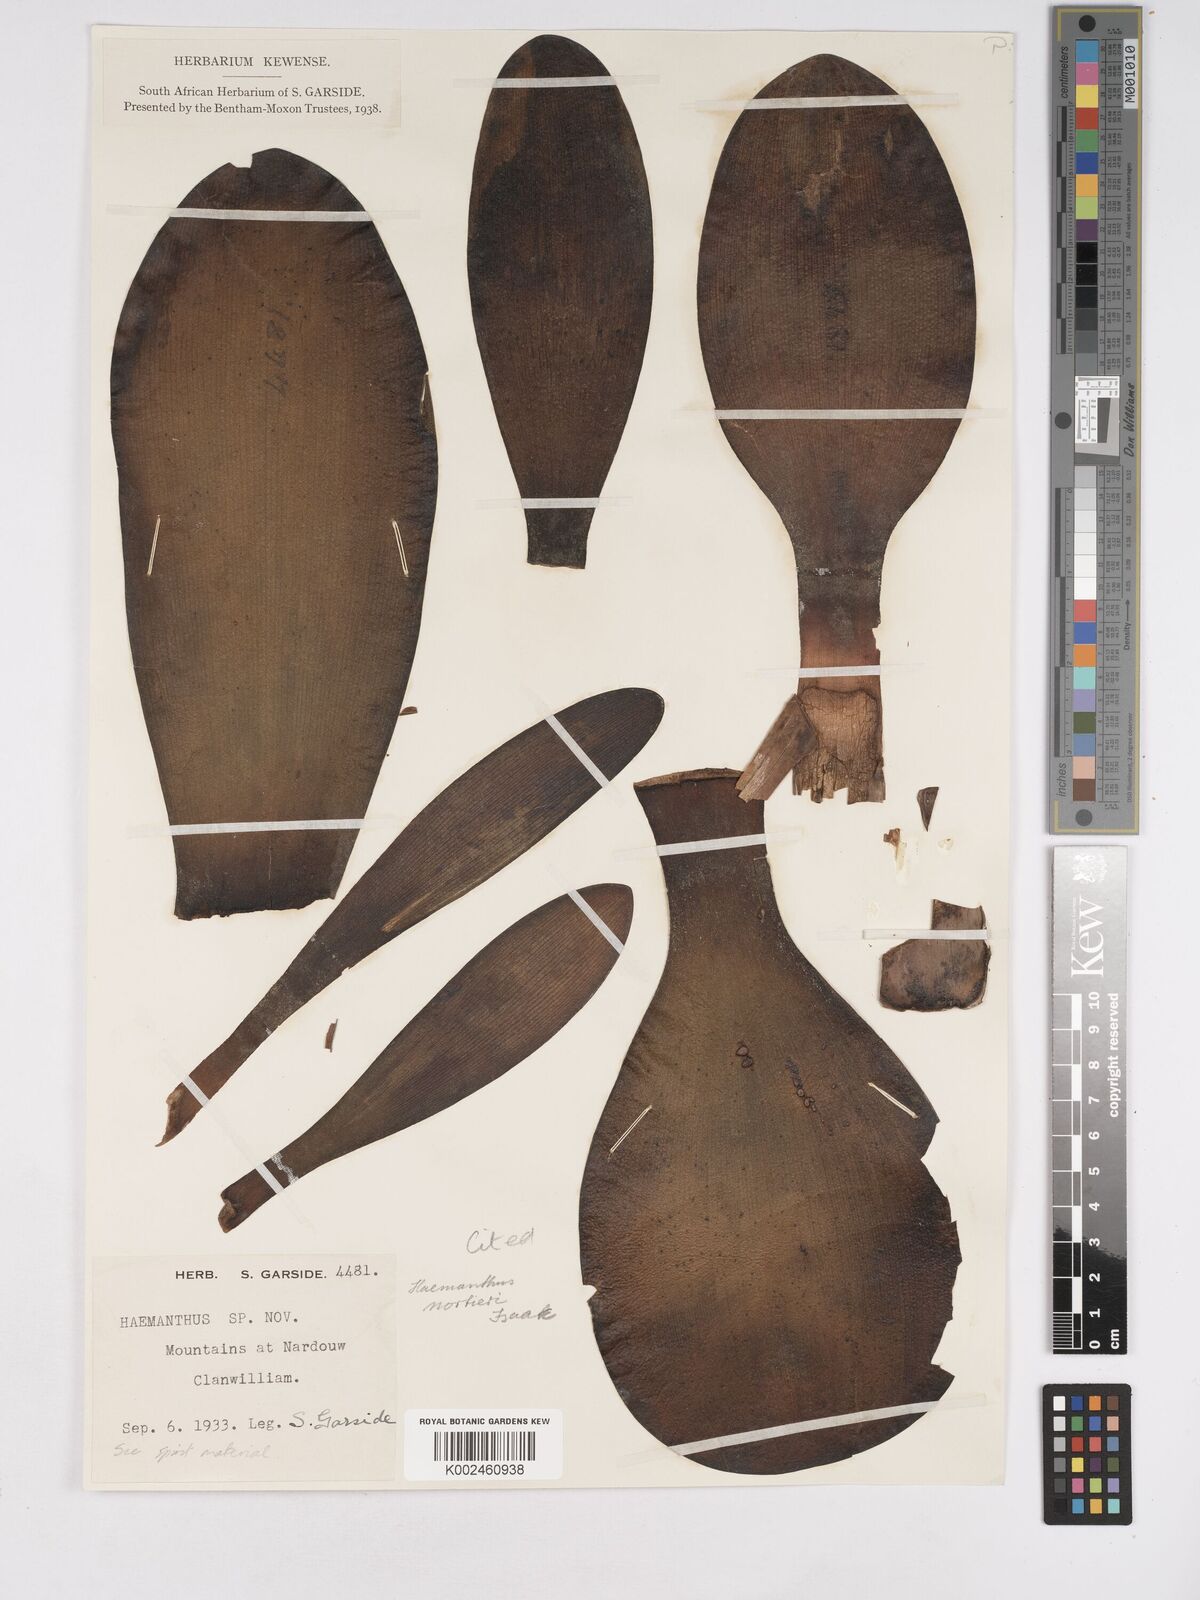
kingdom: Plantae
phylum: Tracheophyta
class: Liliopsida
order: Asparagales
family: Amaryllidaceae
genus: Haemanthus
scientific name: Haemanthus nortieri
